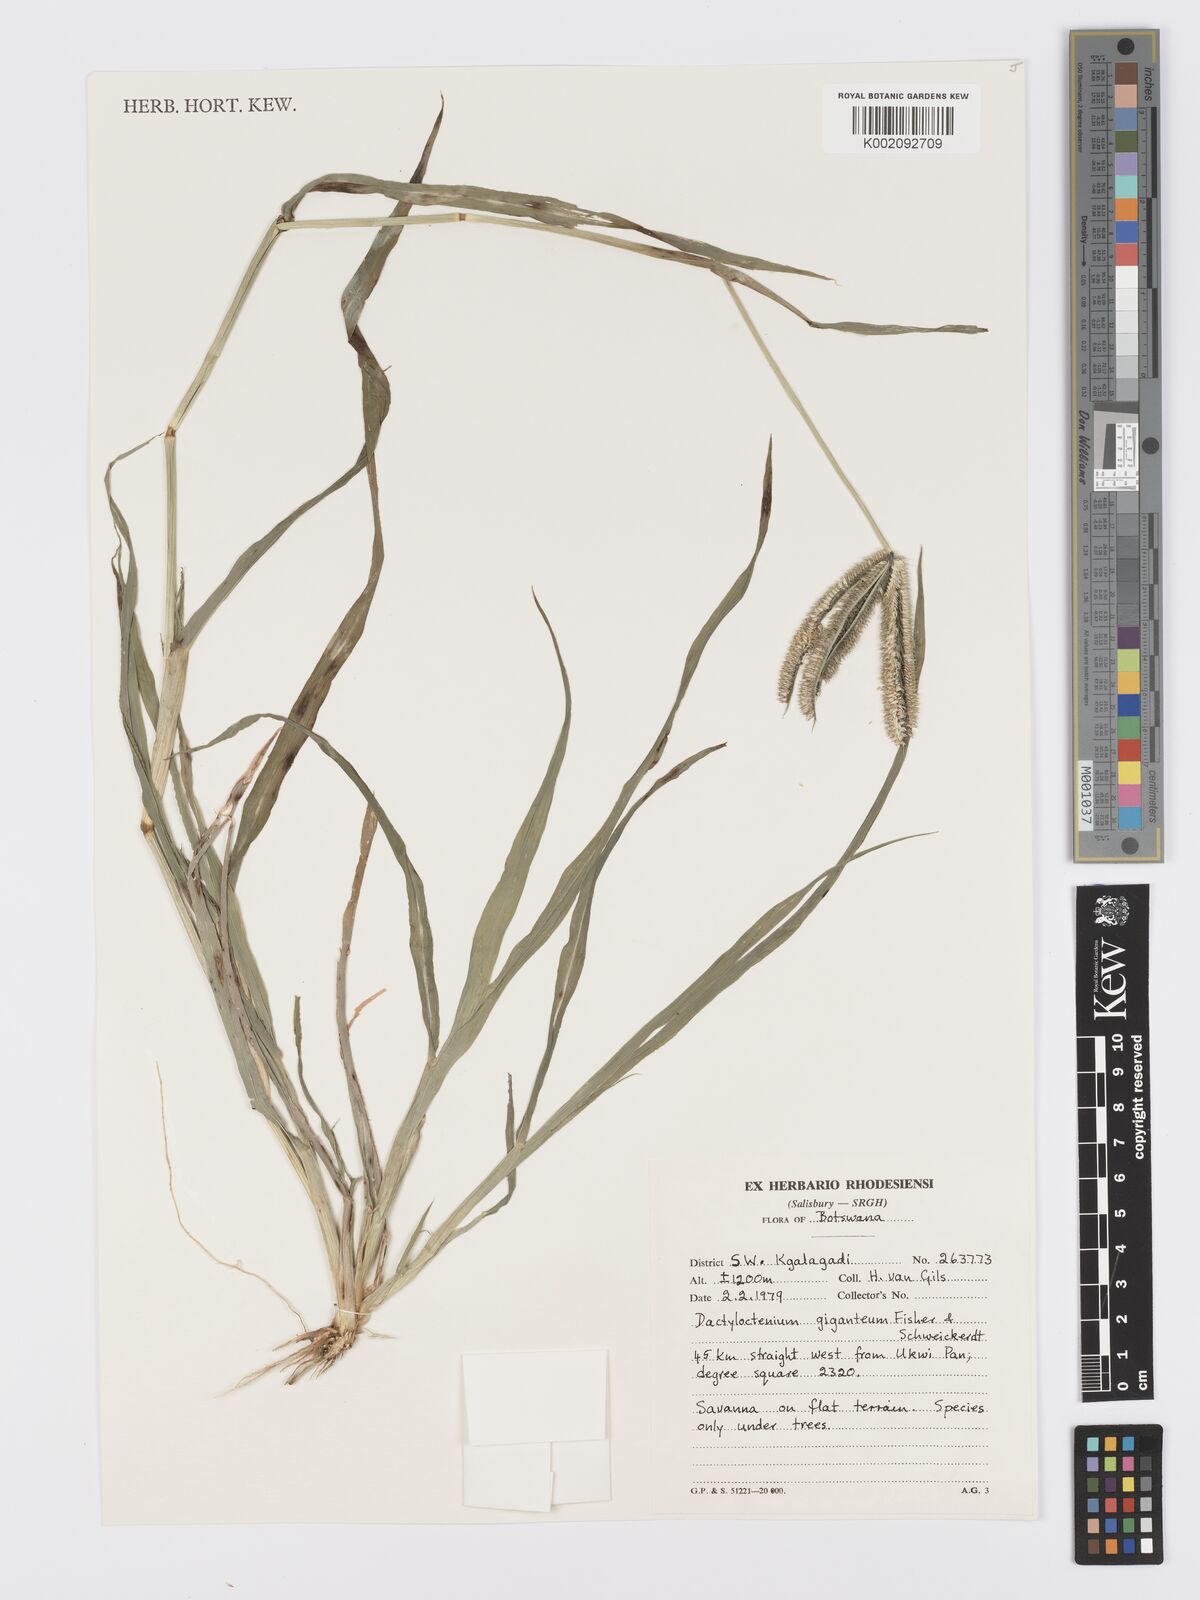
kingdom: Plantae
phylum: Tracheophyta
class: Liliopsida
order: Poales
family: Poaceae
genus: Dactyloctenium
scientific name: Dactyloctenium giganteum
